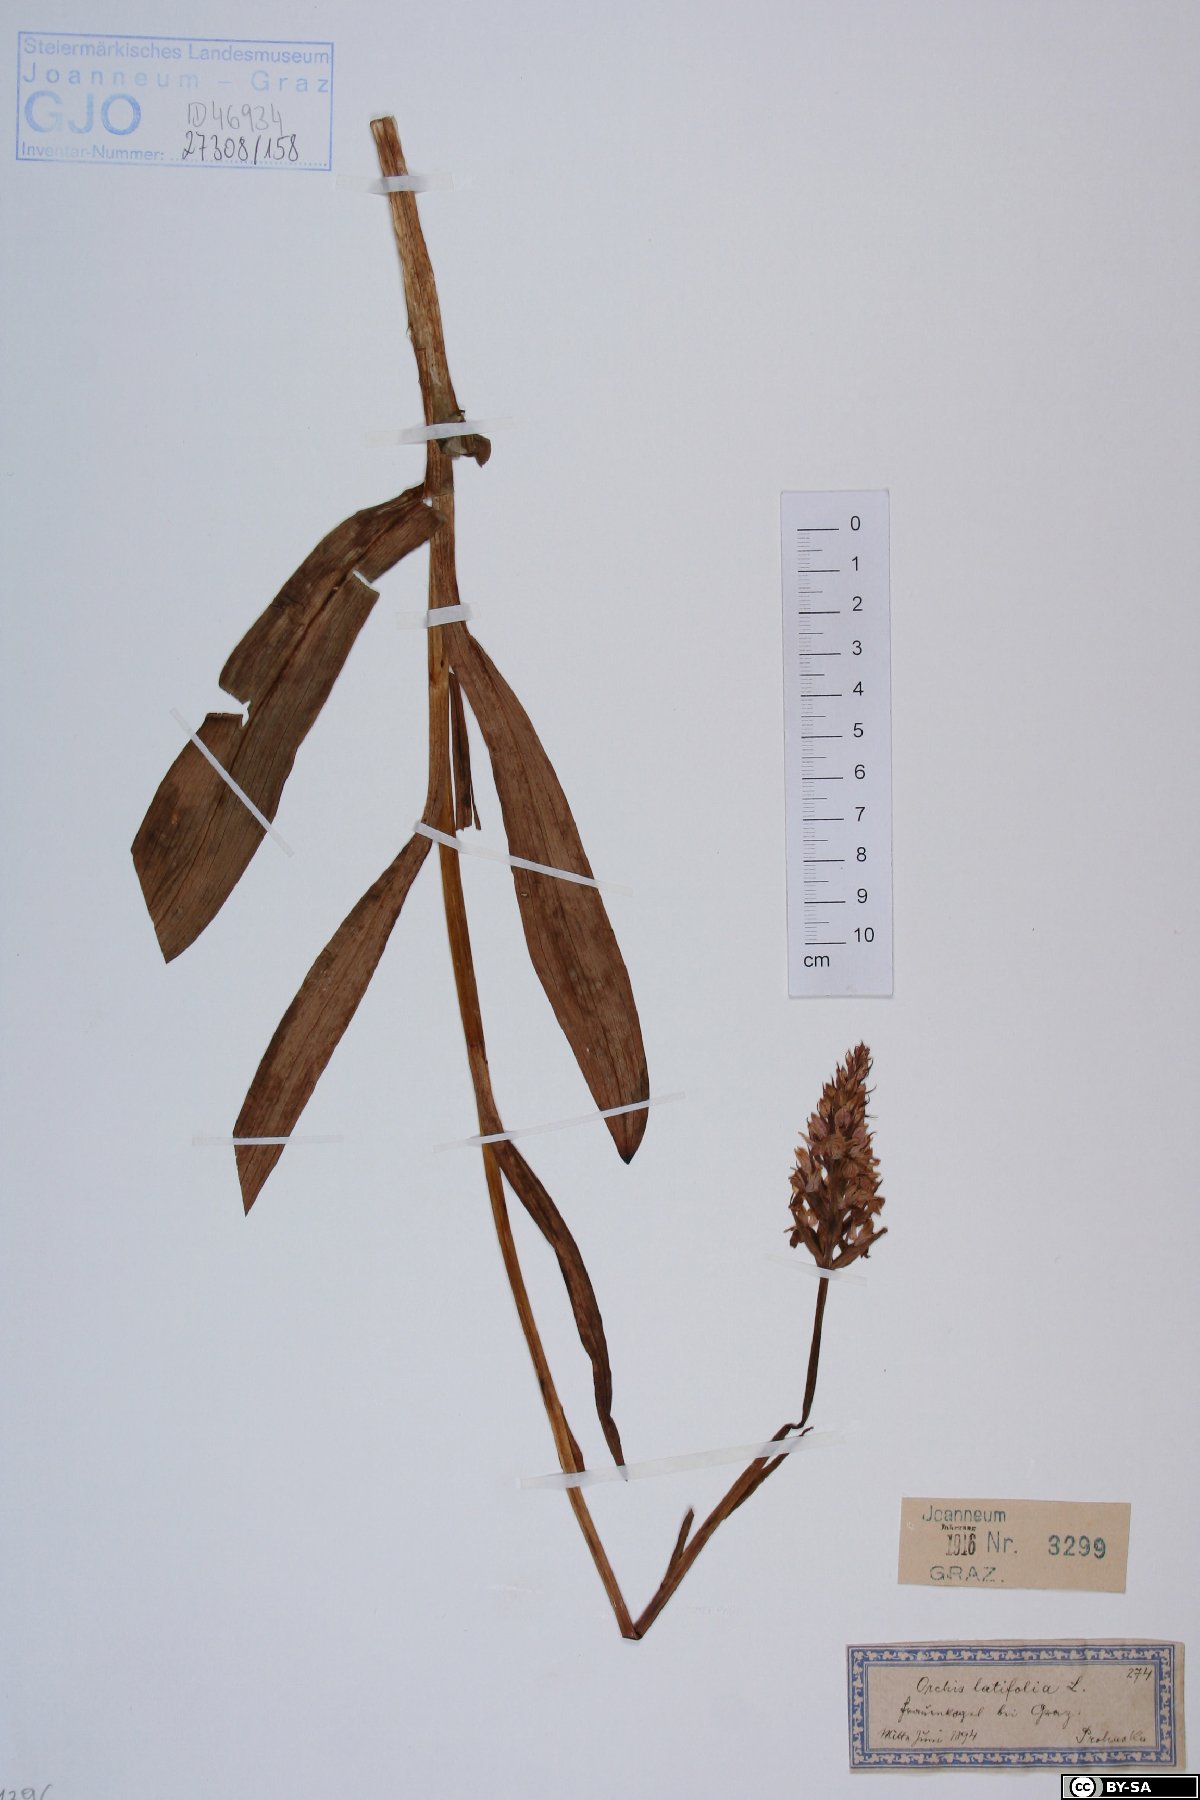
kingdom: Plantae
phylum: Tracheophyta
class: Liliopsida
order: Asparagales
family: Orchidaceae
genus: Dactylorhiza
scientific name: Dactylorhiza incarnata
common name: Early marsh-orchid
